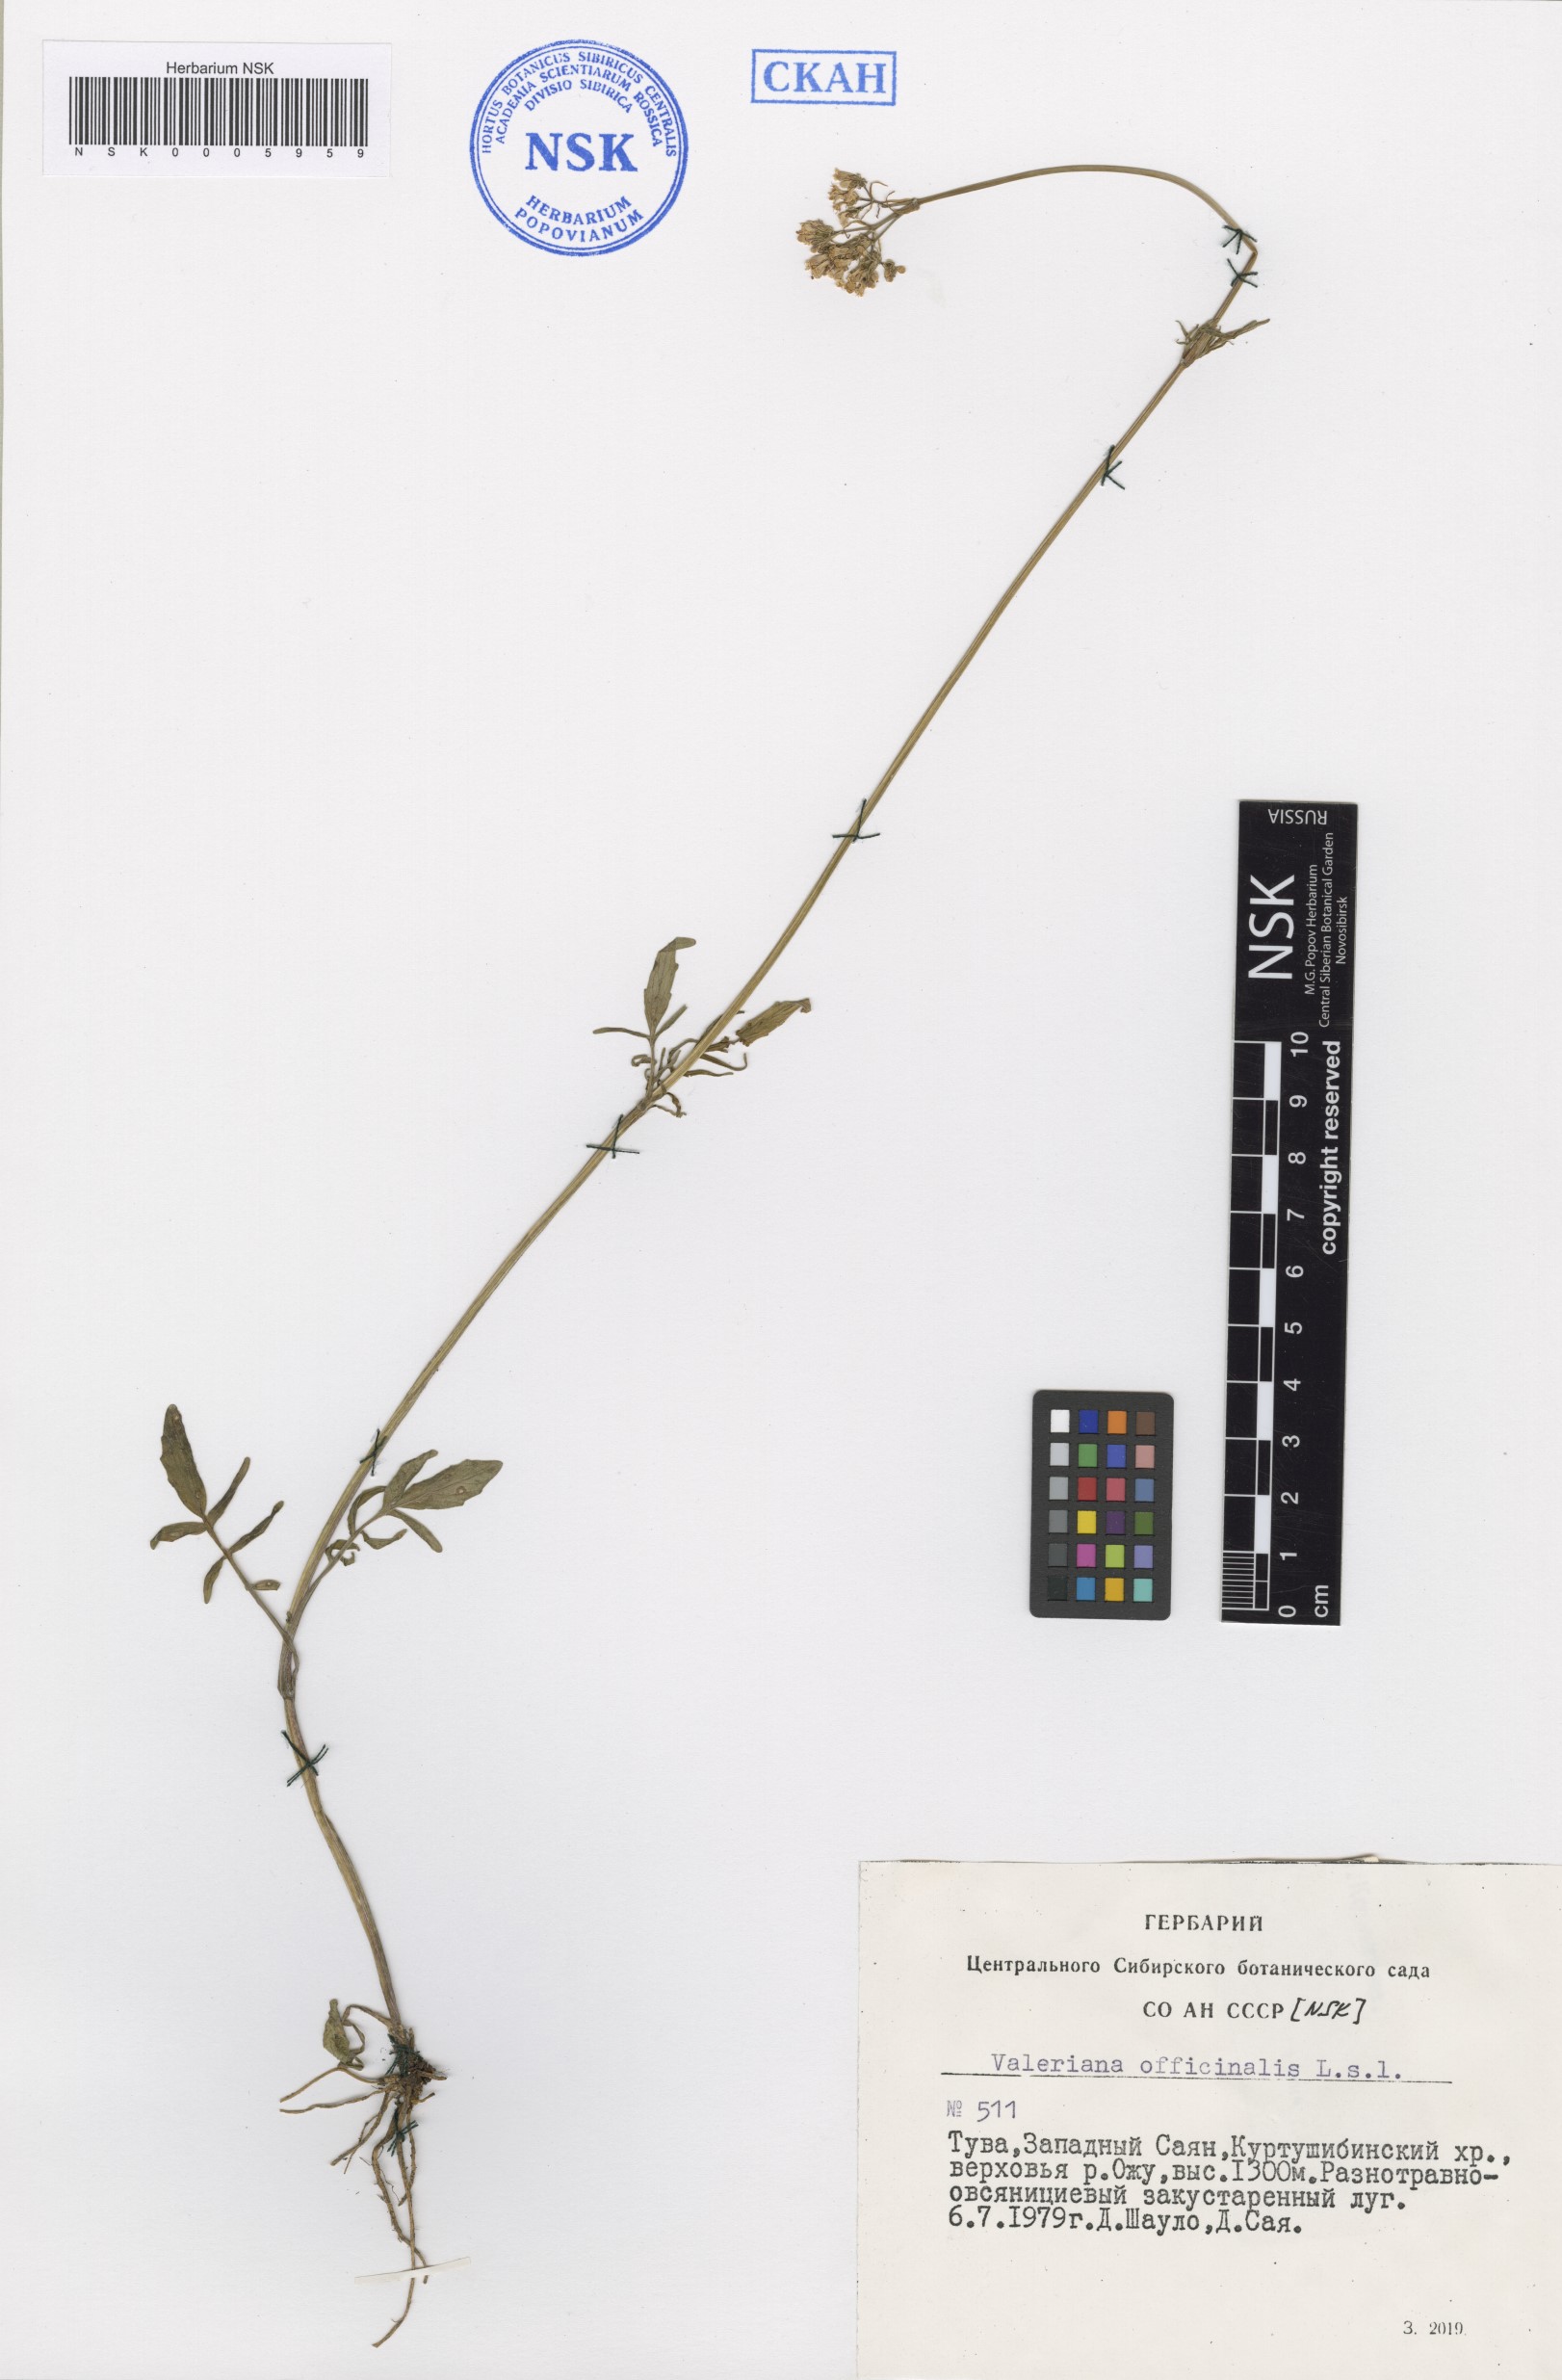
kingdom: Plantae
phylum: Tracheophyta
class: Magnoliopsida
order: Dipsacales
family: Caprifoliaceae
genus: Valeriana
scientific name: Valeriana officinalis
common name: Common valerian
